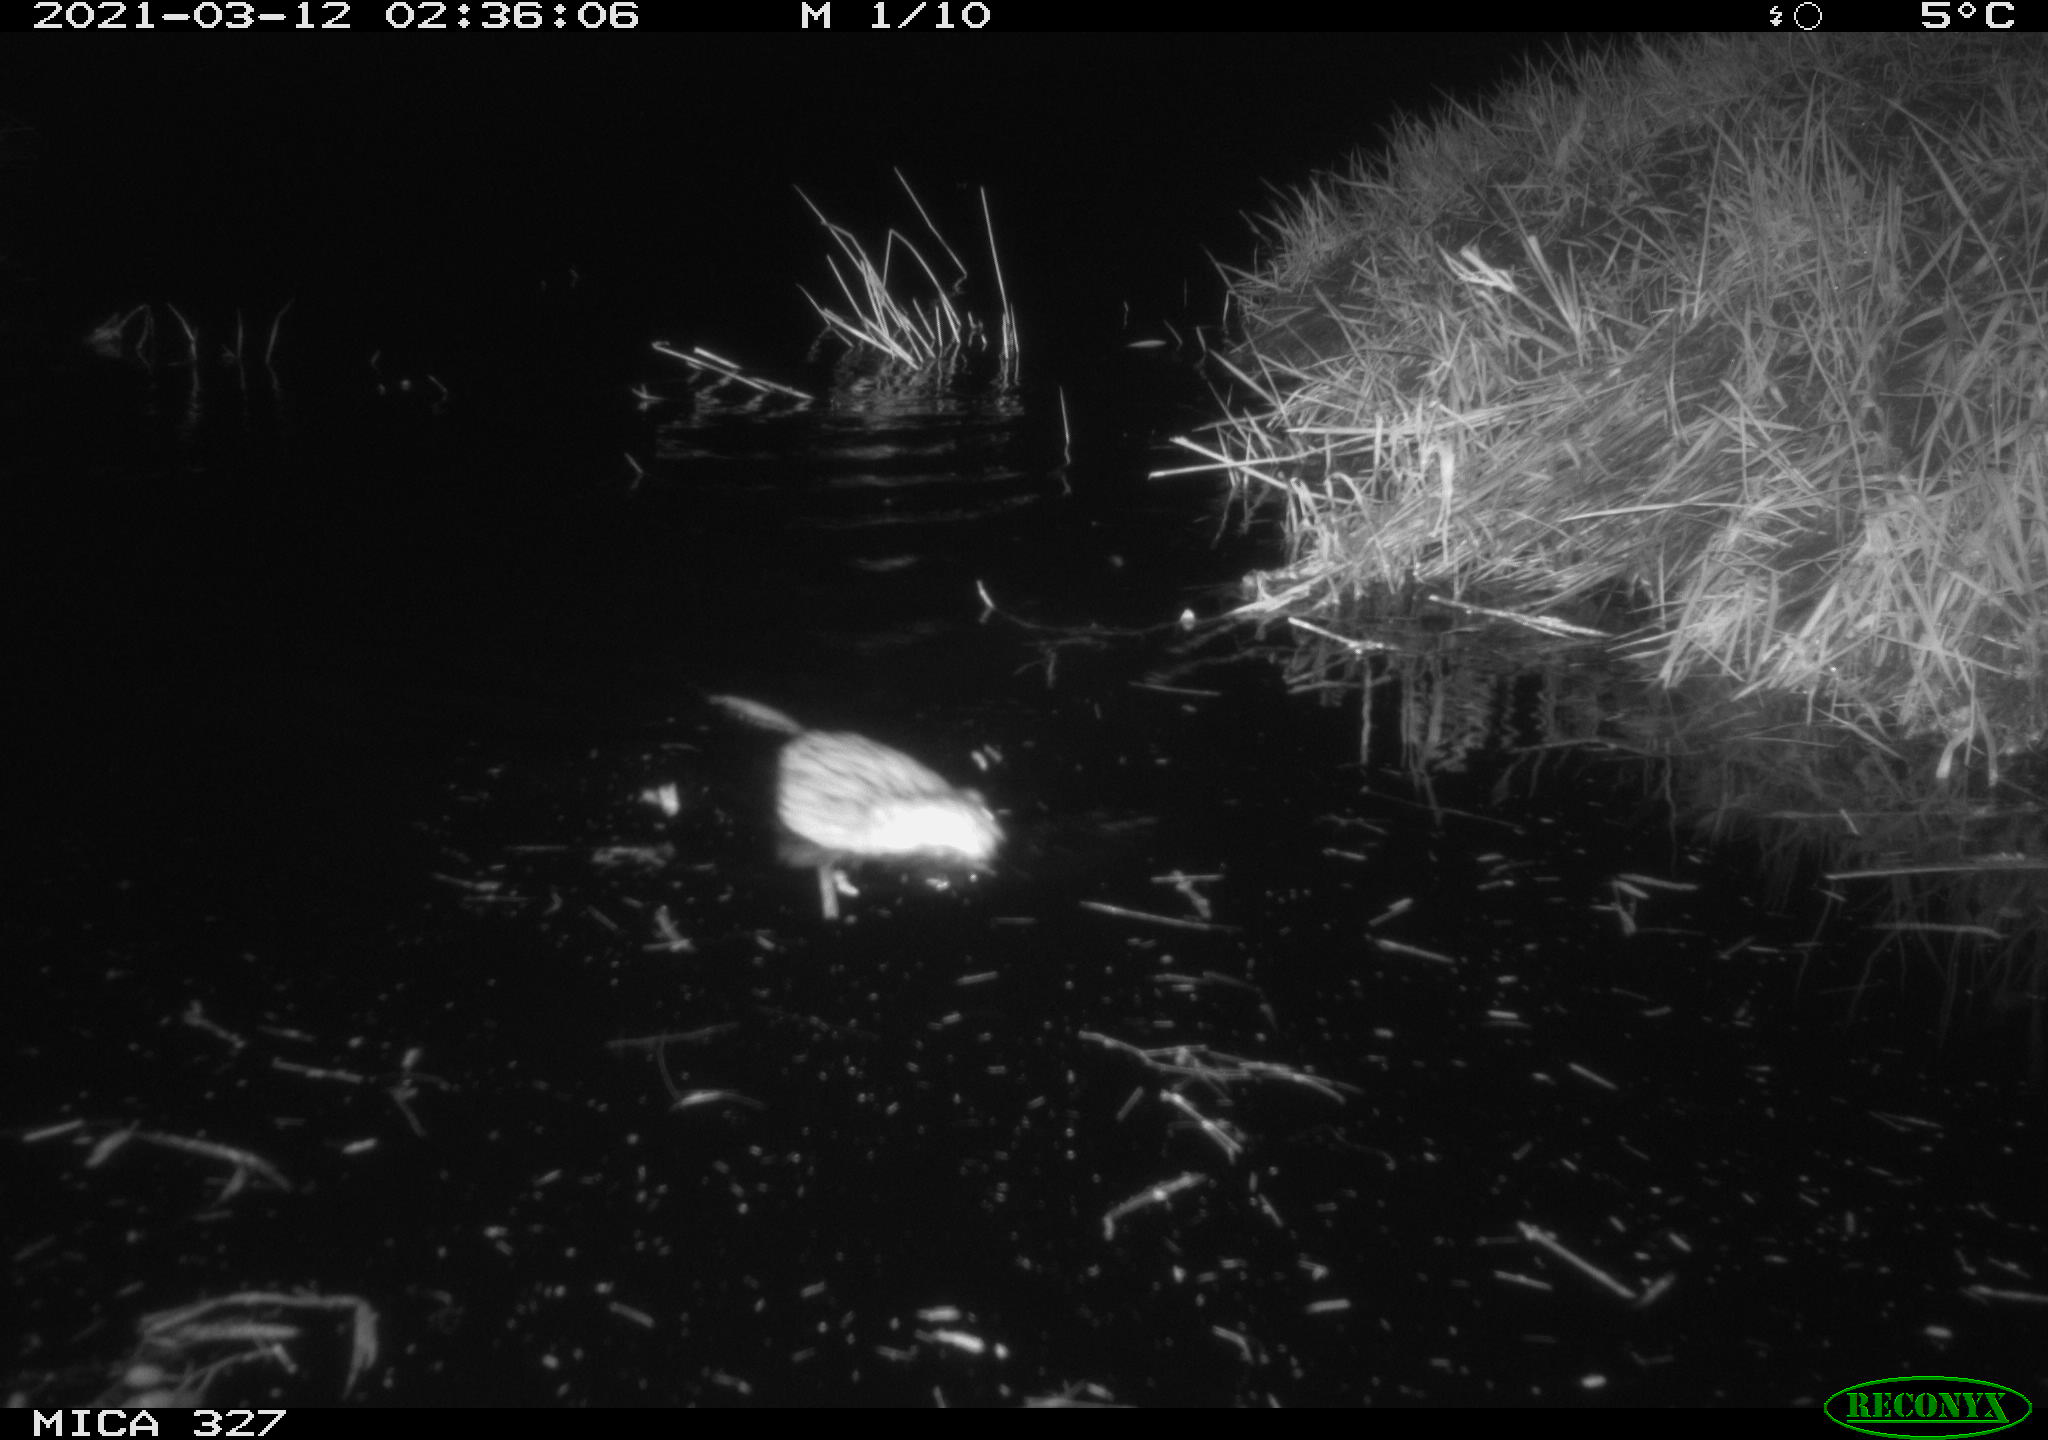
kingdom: Animalia
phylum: Chordata
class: Mammalia
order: Rodentia
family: Cricetidae
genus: Ondatra
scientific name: Ondatra zibethicus
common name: Muskrat
